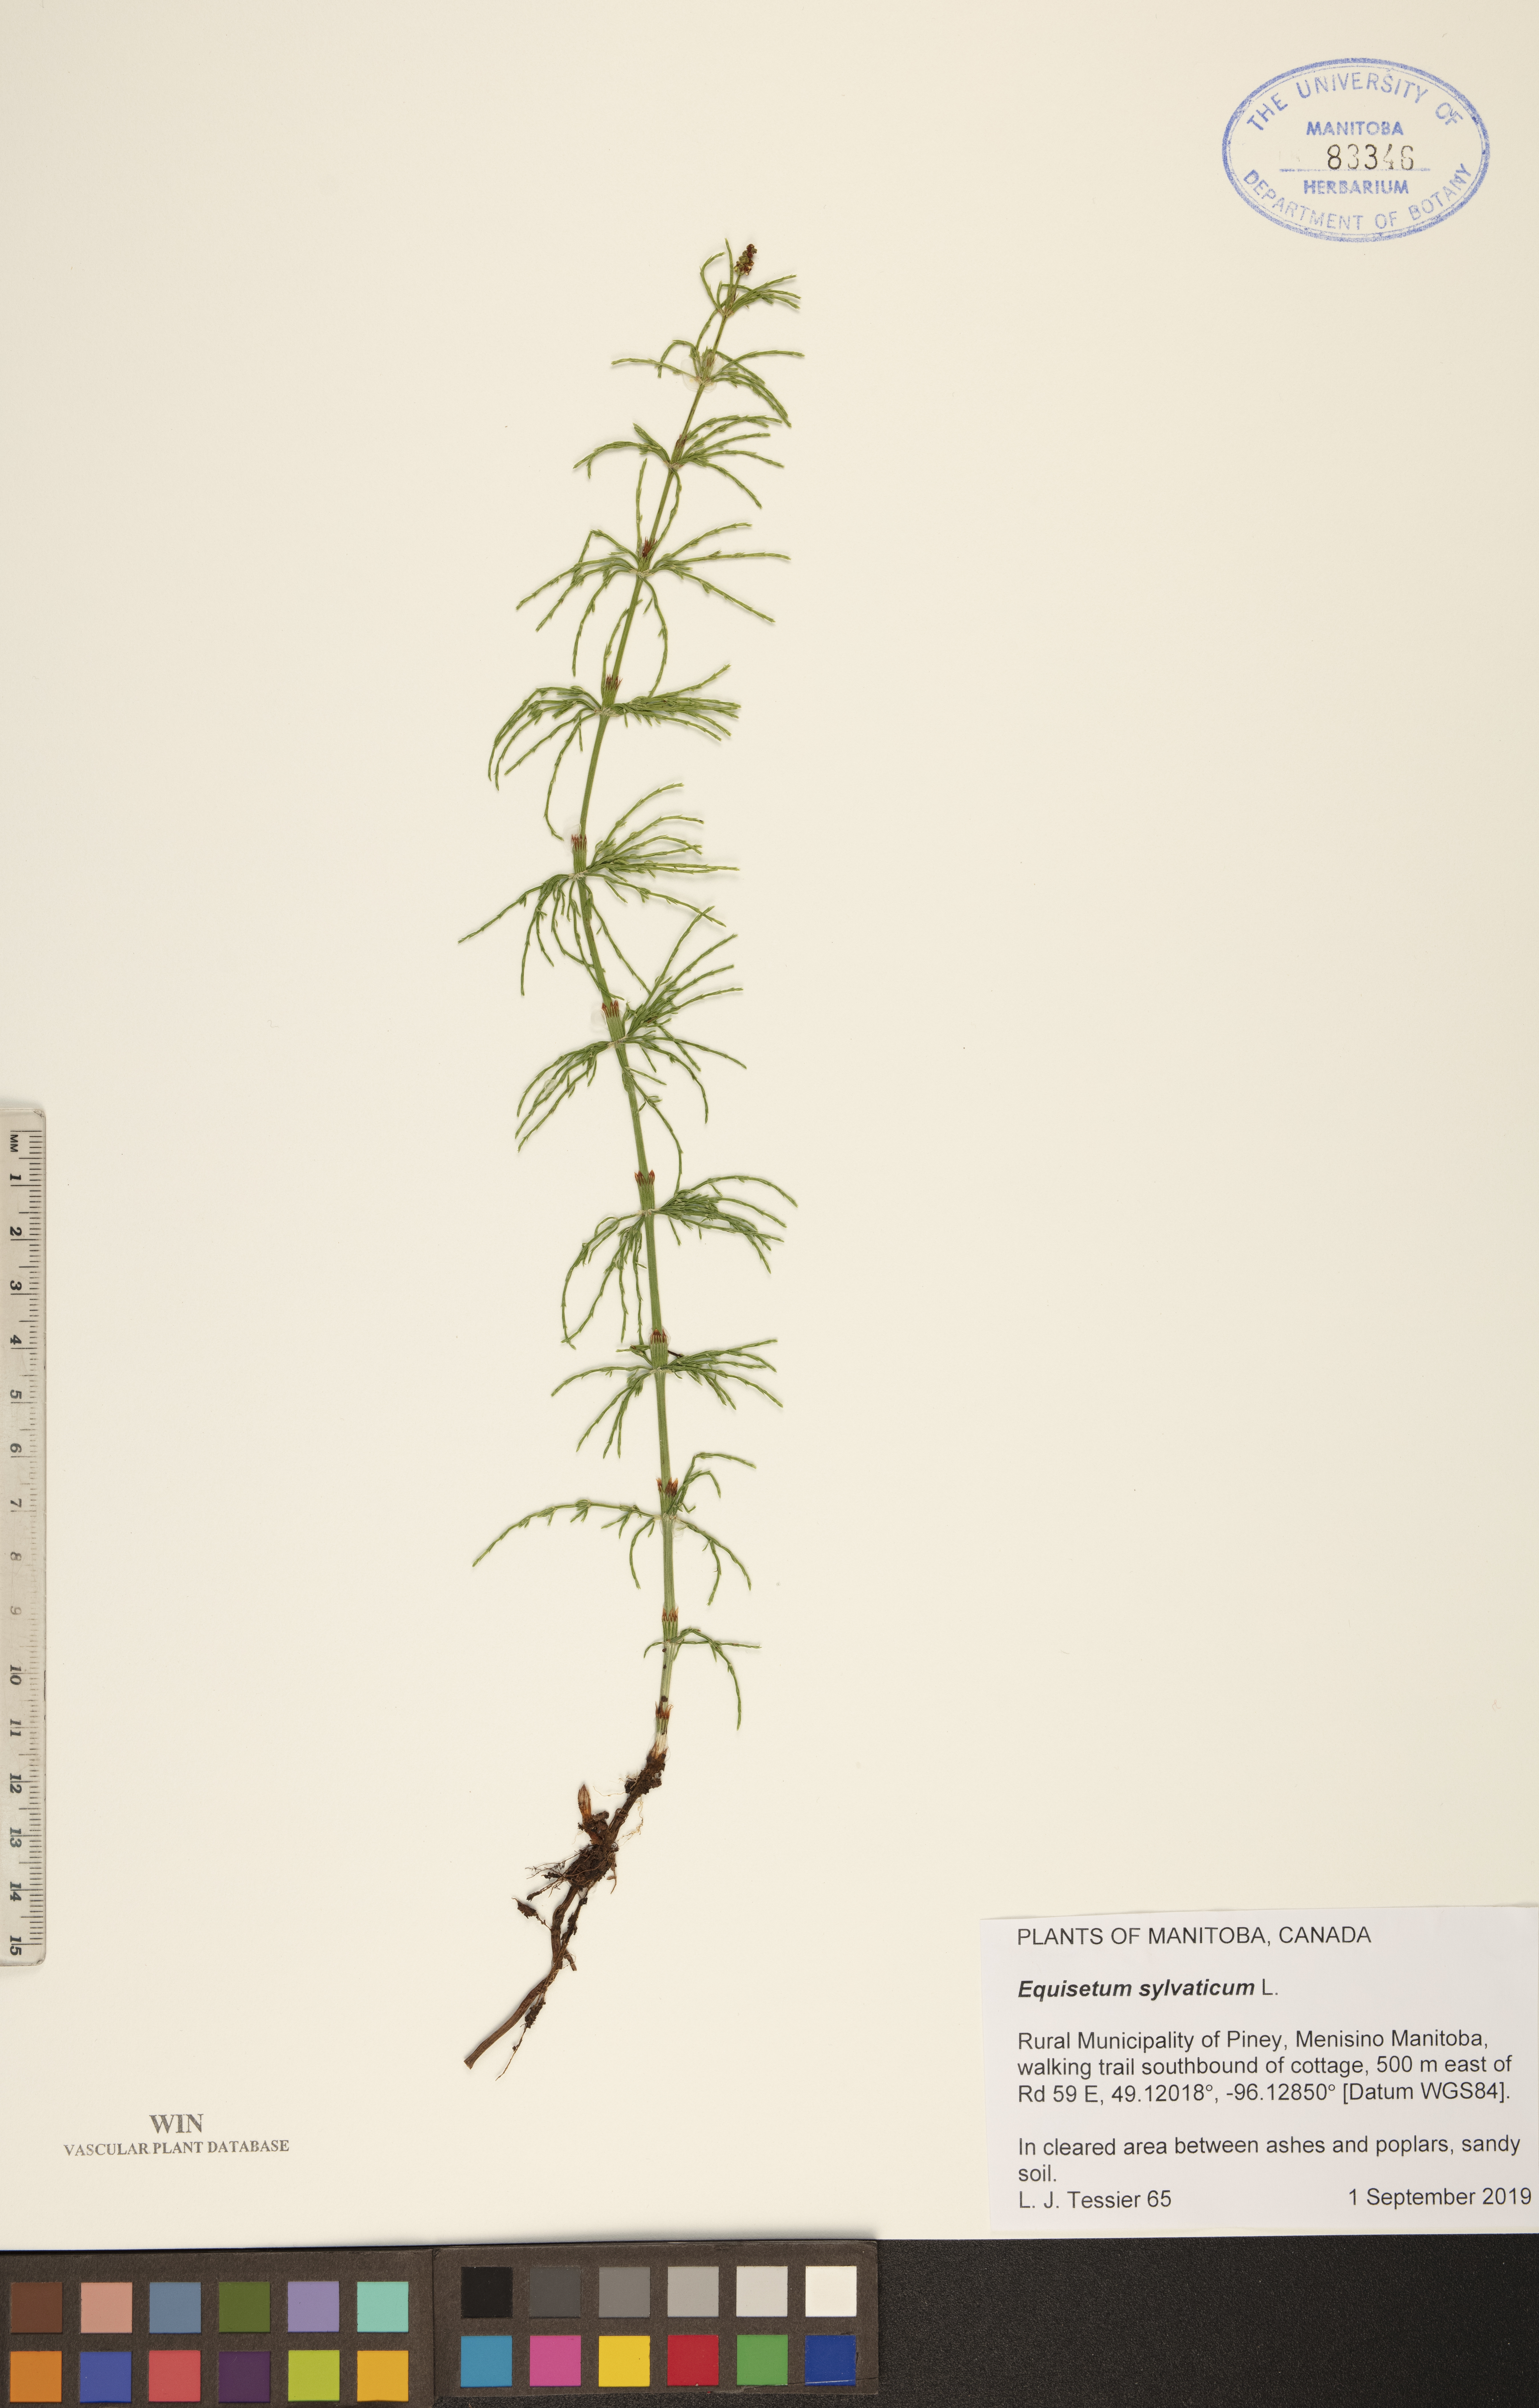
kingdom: Plantae
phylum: Tracheophyta
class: Polypodiopsida
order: Equisetales
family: Equisetaceae
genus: Equisetum
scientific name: Equisetum sylvaticum
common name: Wood horsetail
